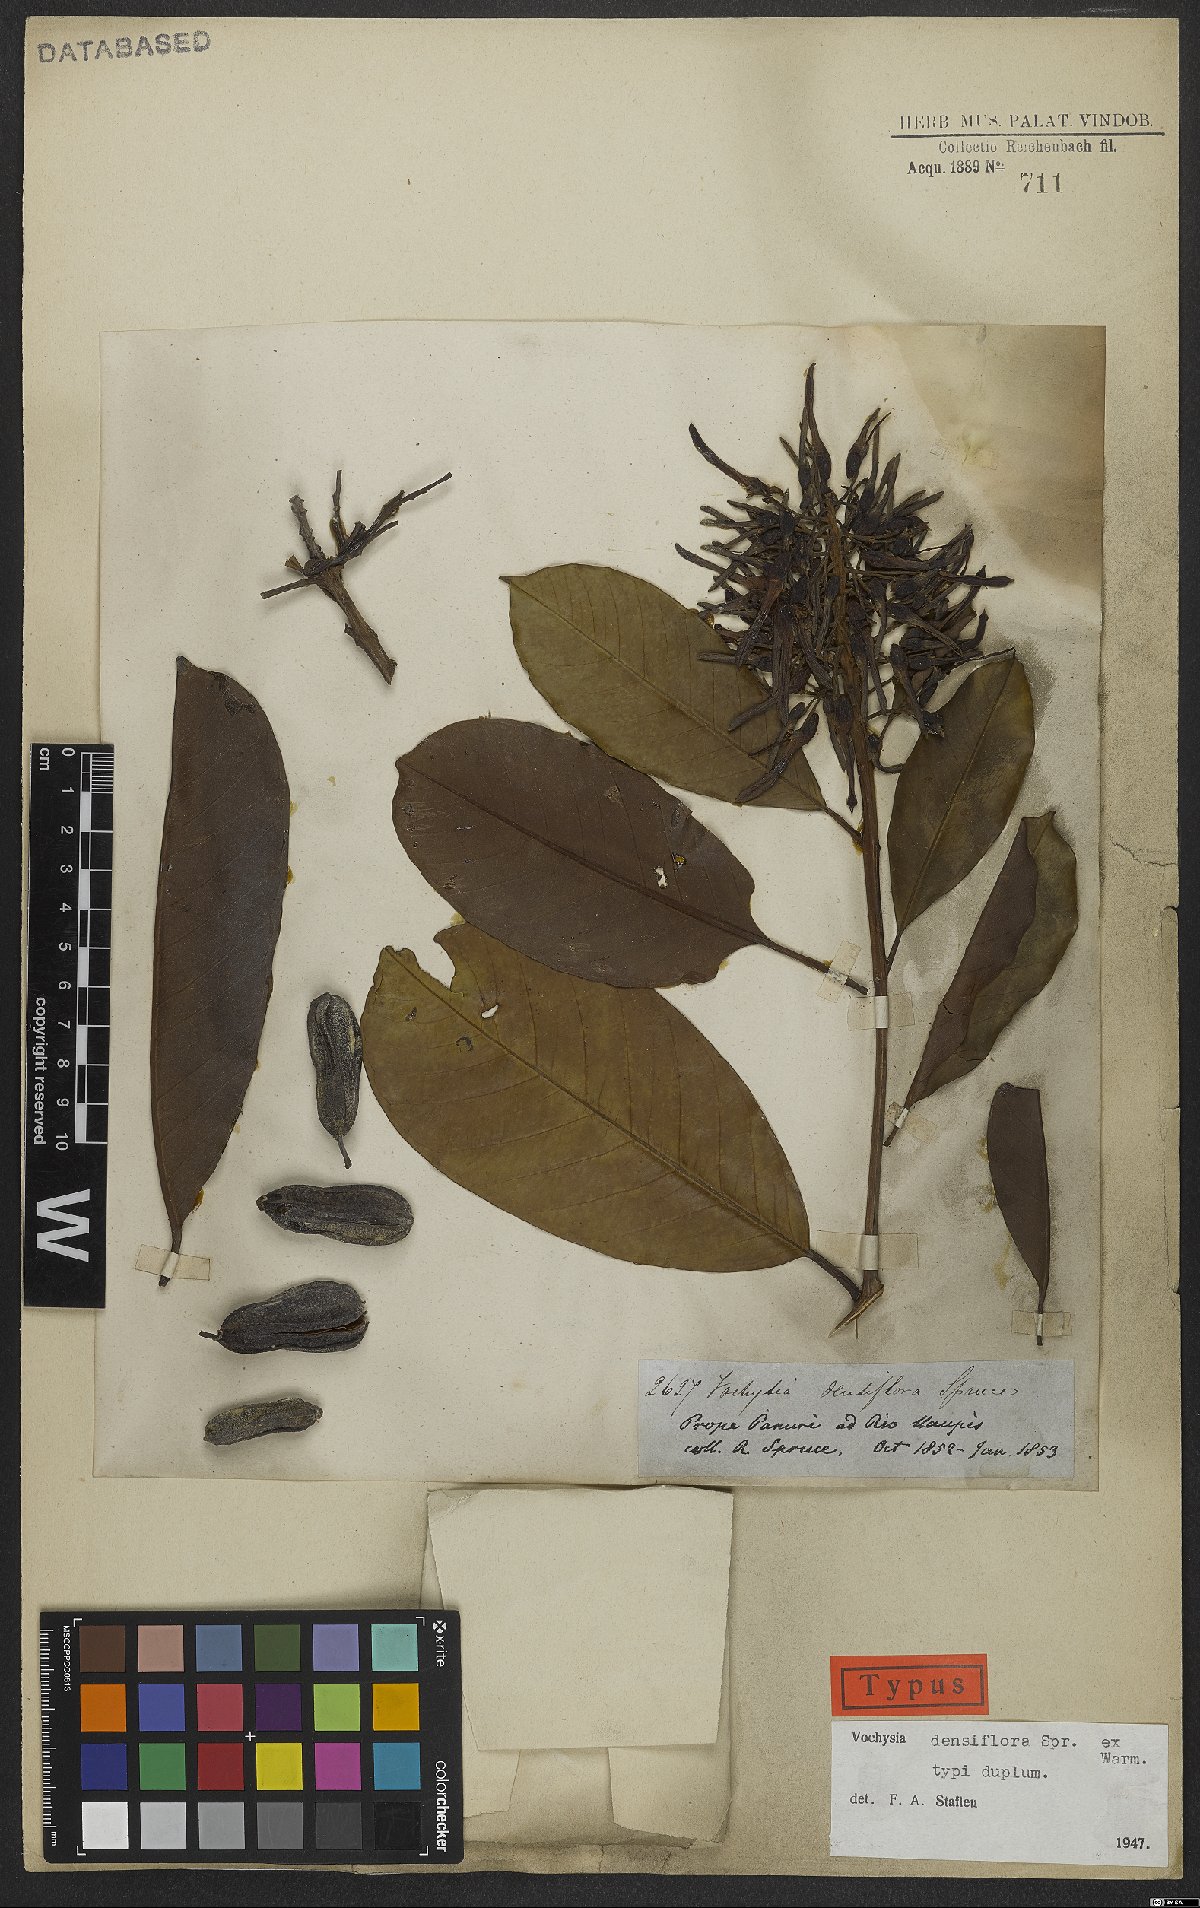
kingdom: Plantae
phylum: Tracheophyta
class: Magnoliopsida
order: Myrtales
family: Vochysiaceae
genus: Vochysia
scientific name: Vochysia densiflora
